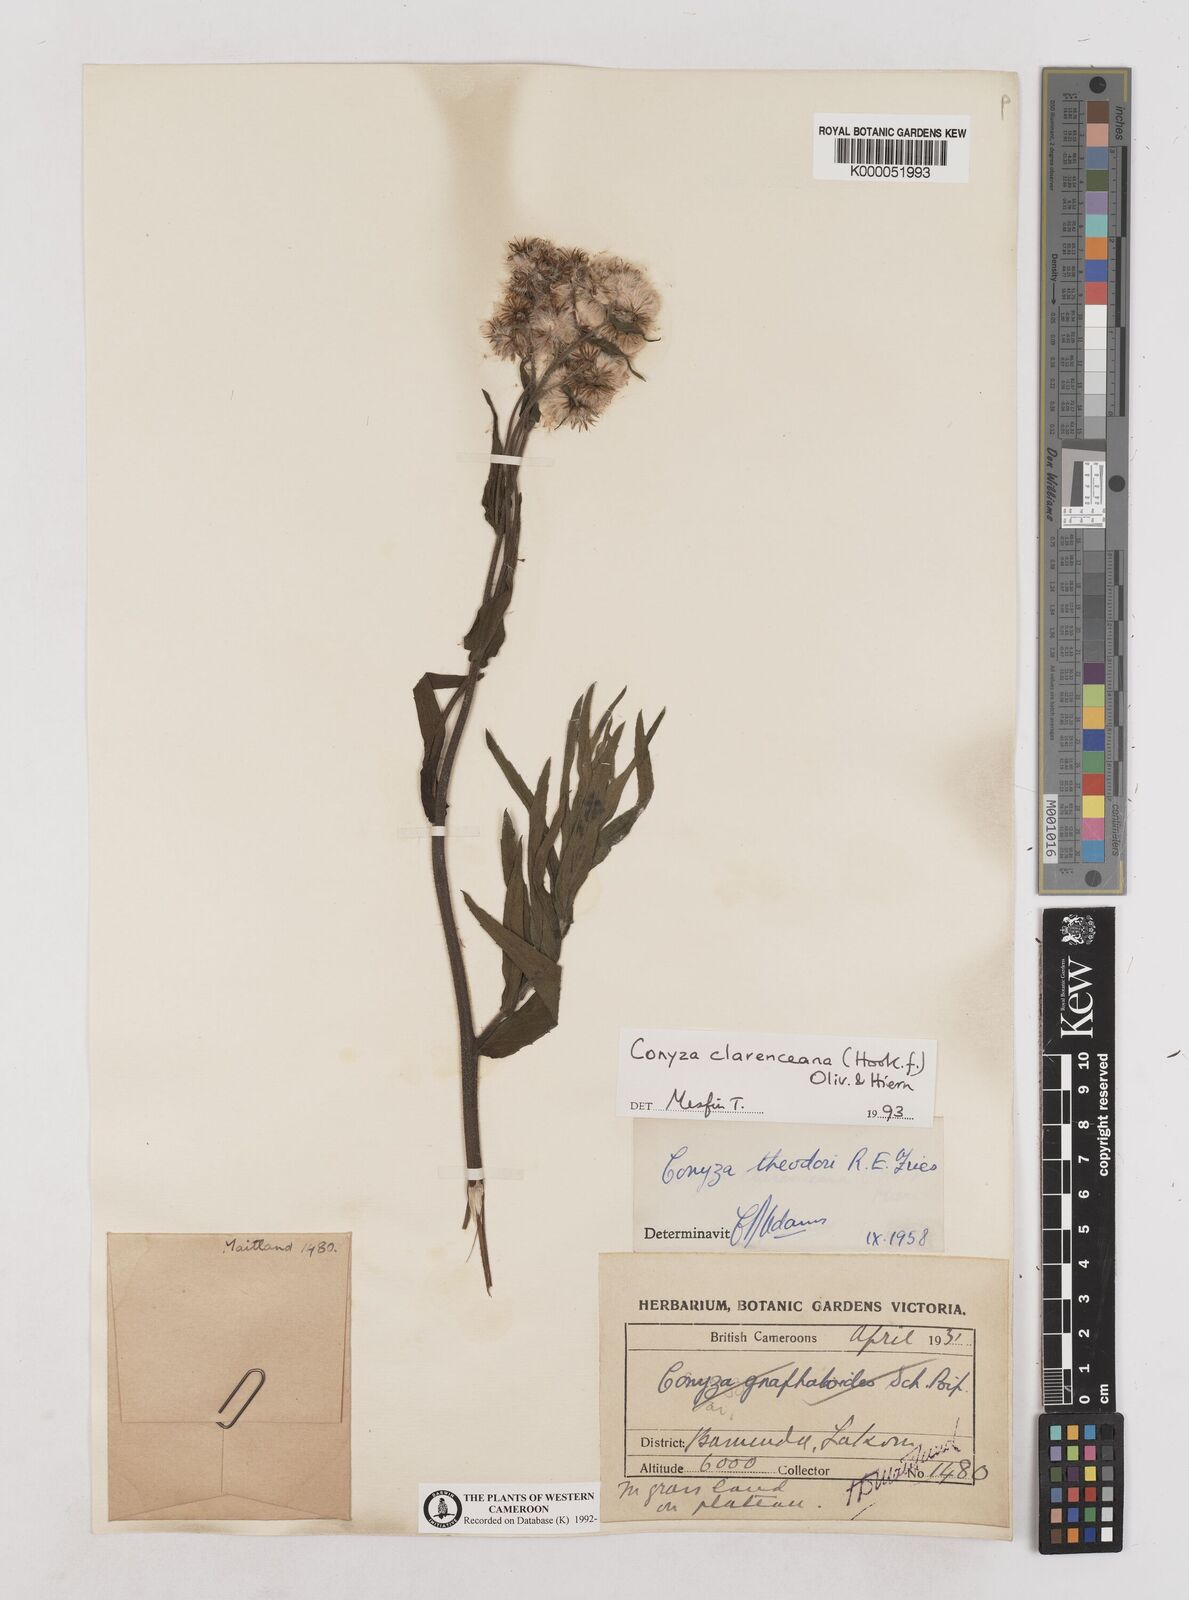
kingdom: Plantae
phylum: Tracheophyta
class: Magnoliopsida
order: Asterales
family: Asteraceae
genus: Conyza
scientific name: Conyza baumii
